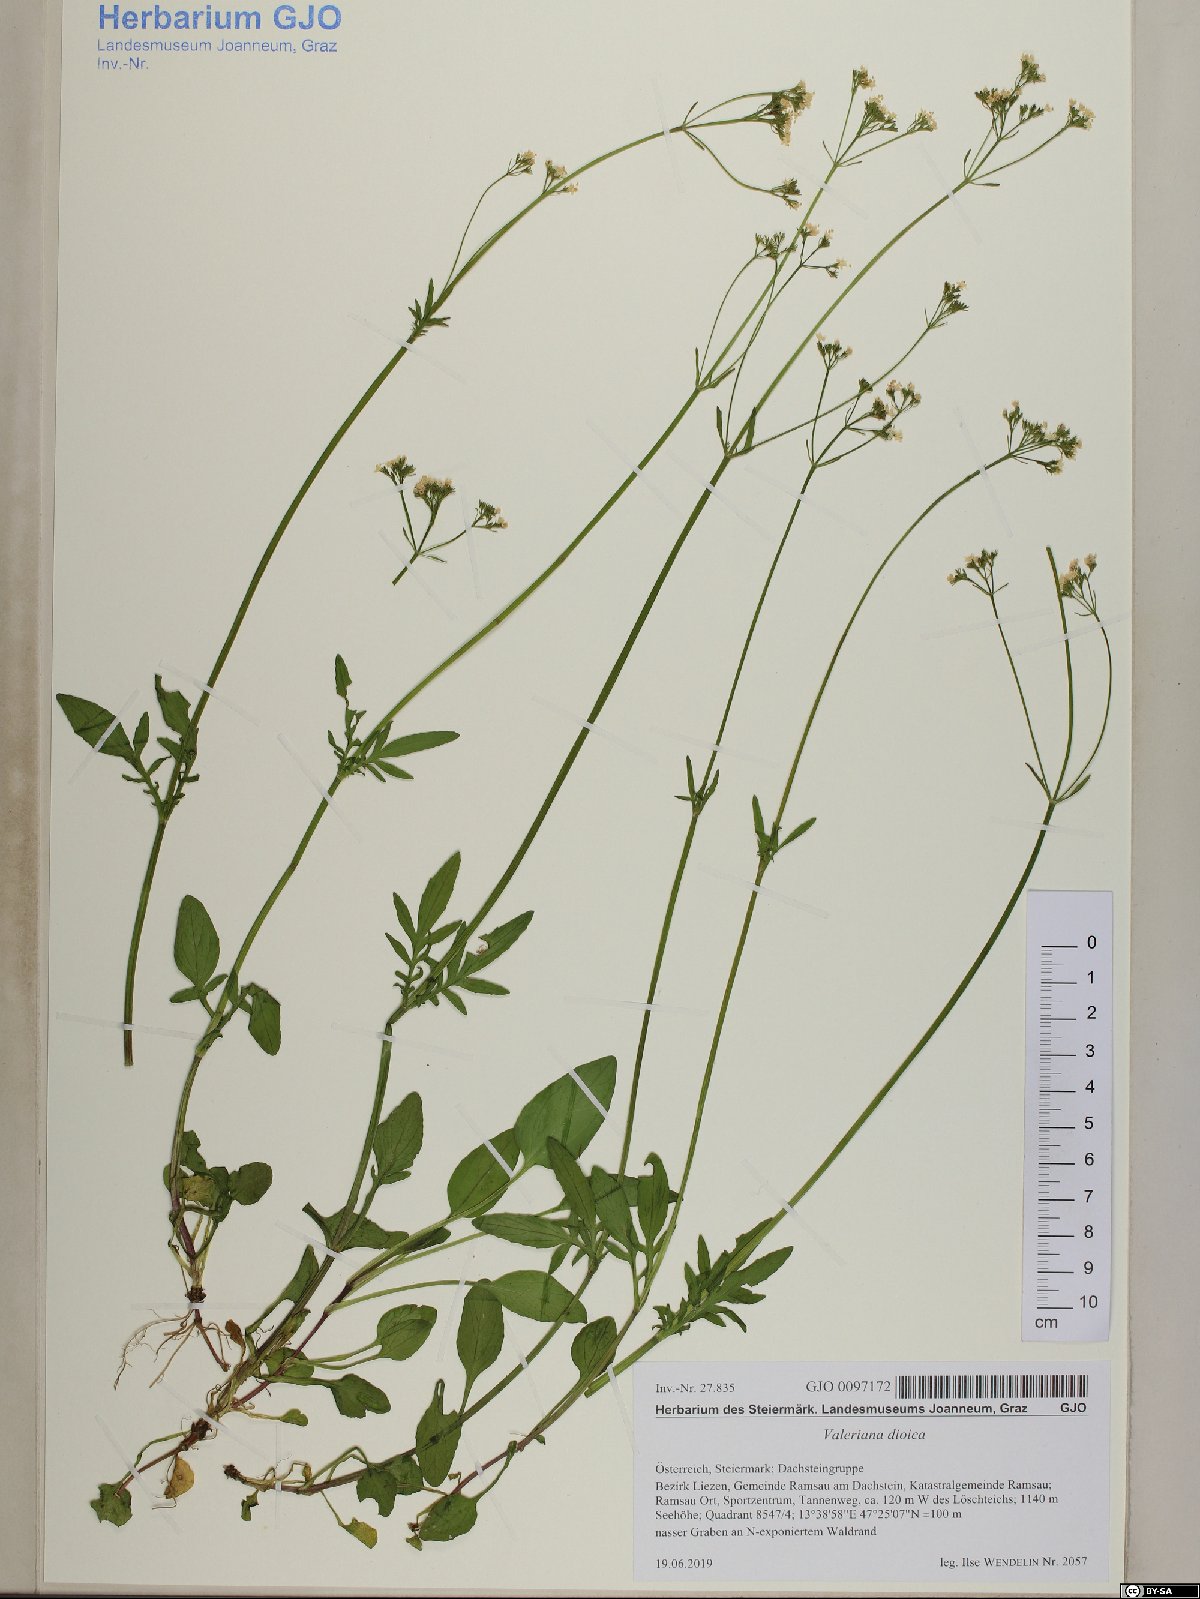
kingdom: Plantae
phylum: Tracheophyta
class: Magnoliopsida
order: Dipsacales
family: Caprifoliaceae
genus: Valeriana
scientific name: Valeriana dioica
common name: Marsh valerian
